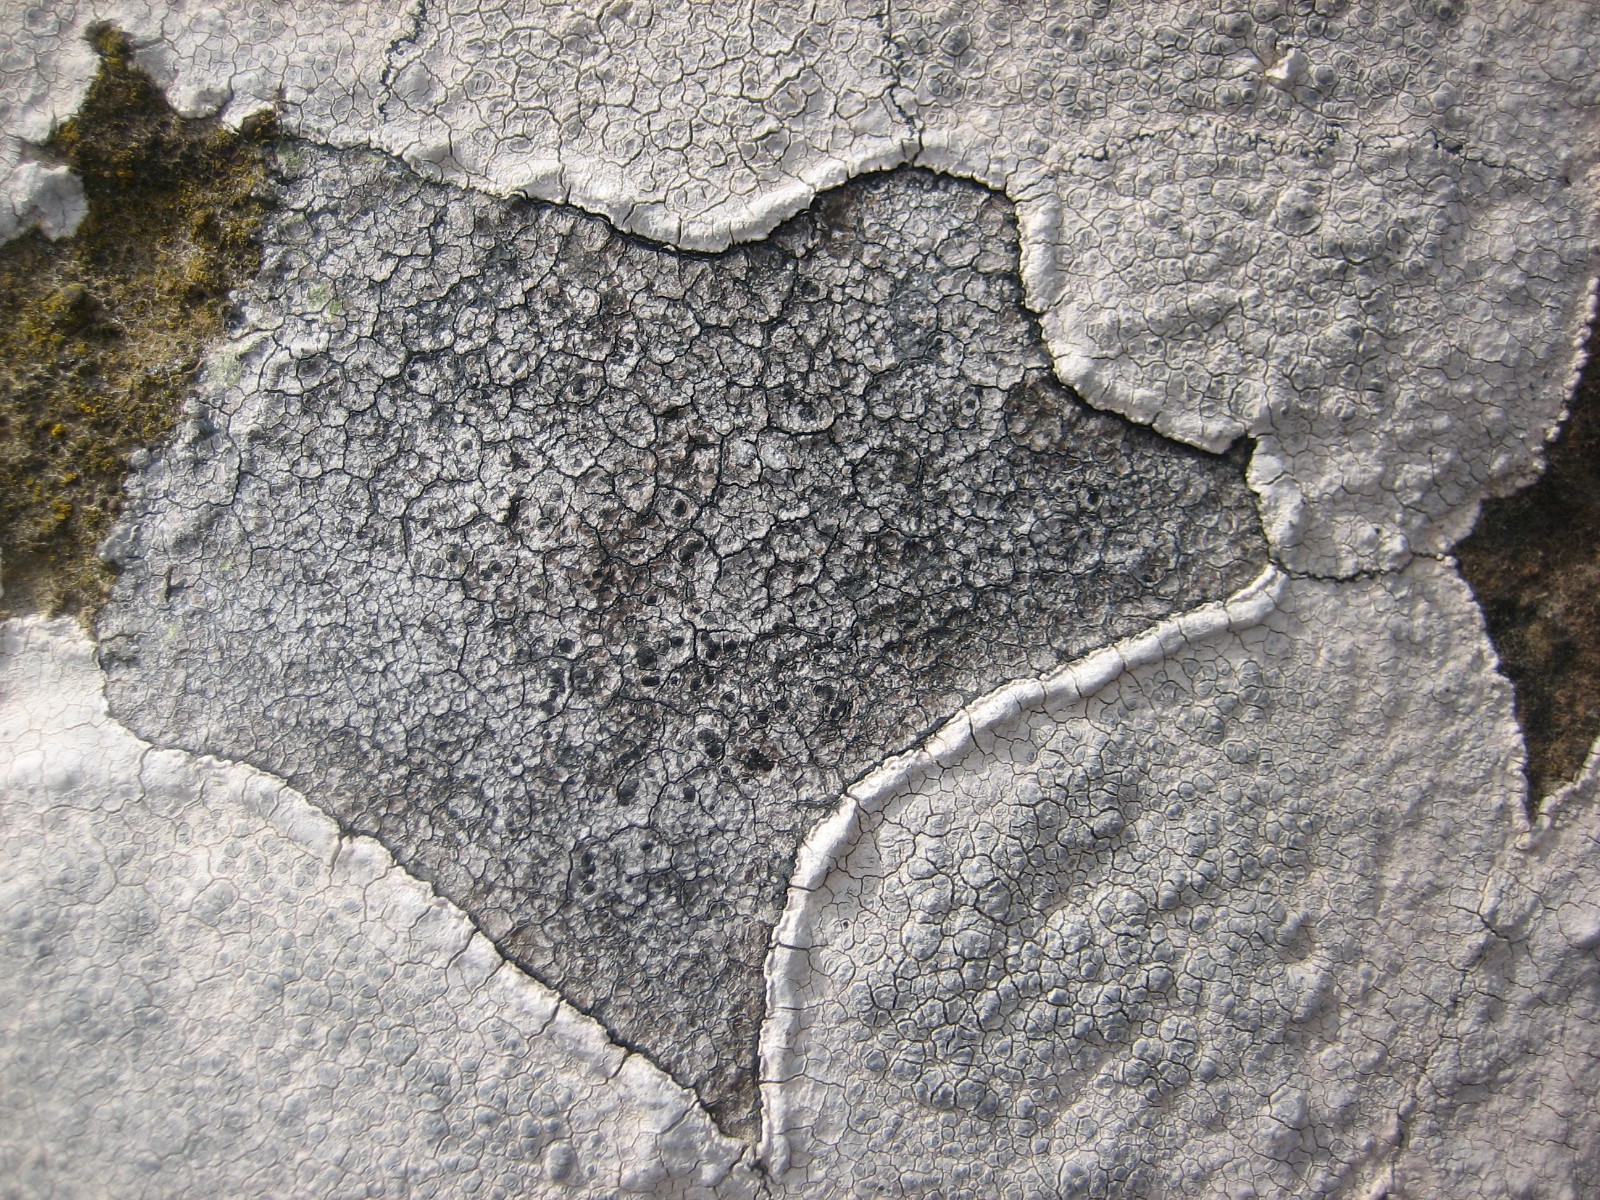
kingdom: Fungi
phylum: Ascomycota
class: Lecanoromycetes
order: Lecanorales
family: Lecanoraceae
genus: Glaucomaria
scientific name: Glaucomaria rupicola
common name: stengærde-kantskivelav
